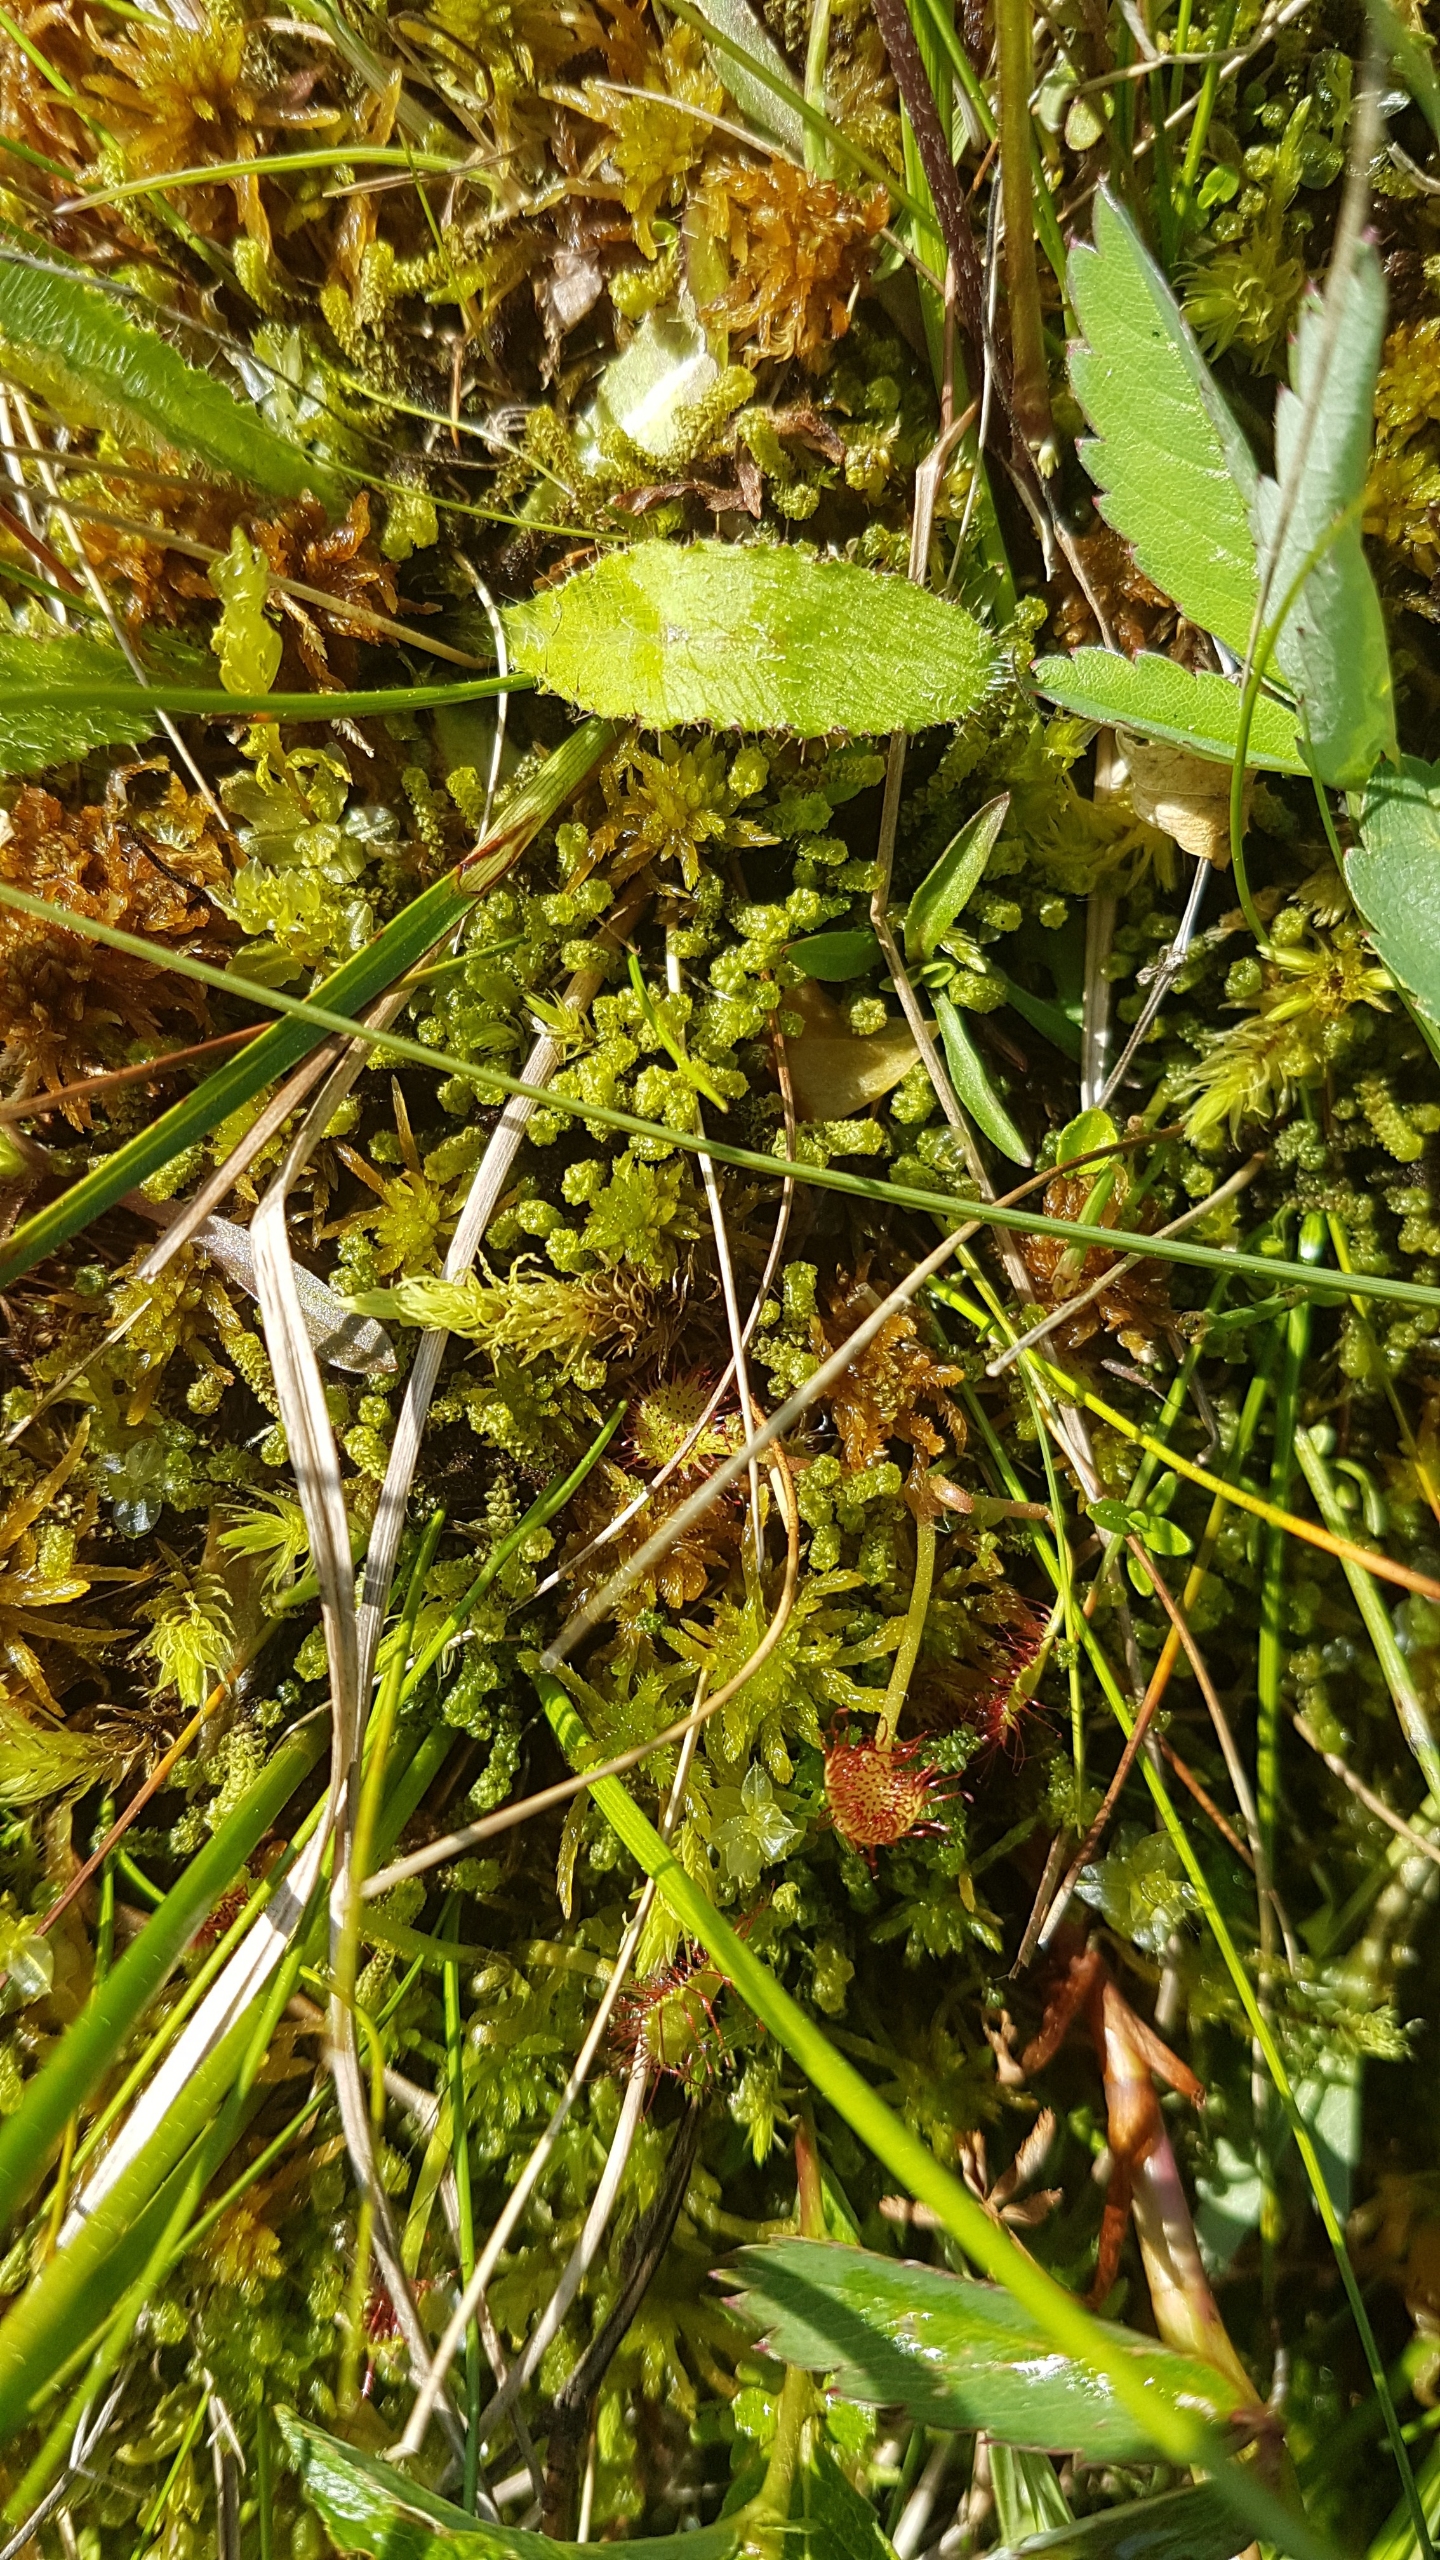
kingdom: Plantae
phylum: Bryophyta
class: Bryopsida
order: Splachnales
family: Meesiaceae
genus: Paludella
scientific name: Paludella squarrosa
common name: Almindelig piberensermos
